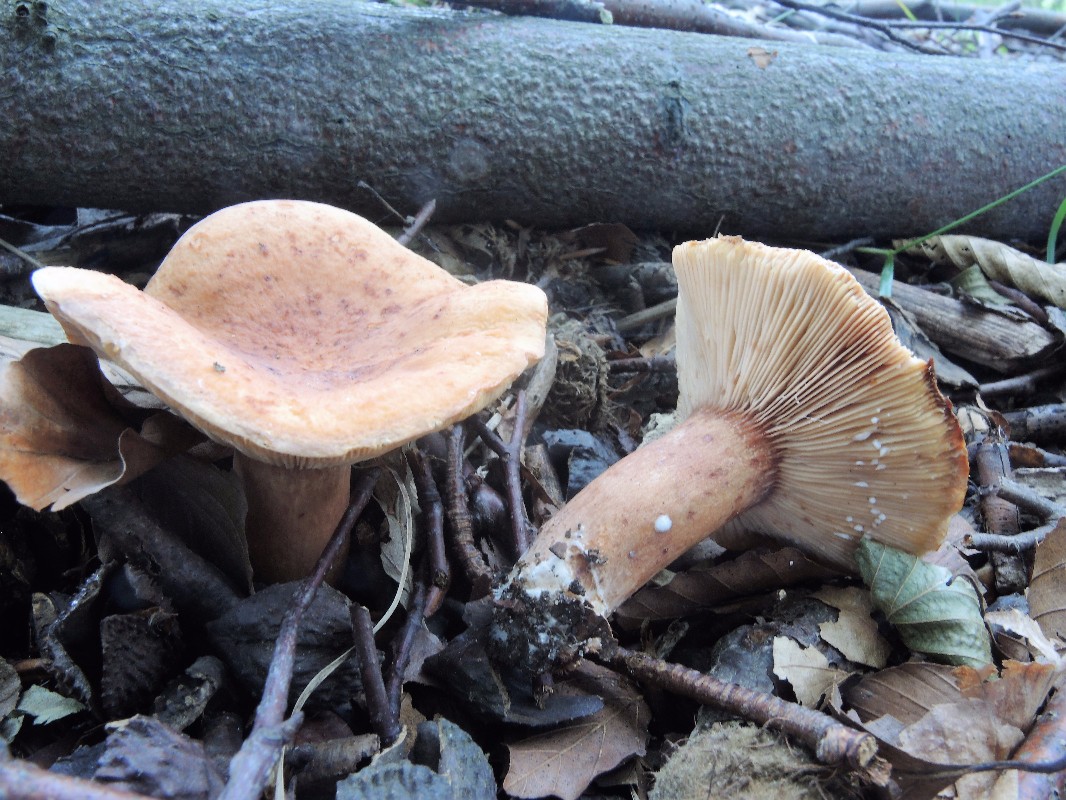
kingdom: Fungi
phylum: Basidiomycota
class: Agaricomycetes
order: Russulales
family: Russulaceae
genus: Lactarius
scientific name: Lactarius rubrocinctus
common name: halsbånd-mælkehat
